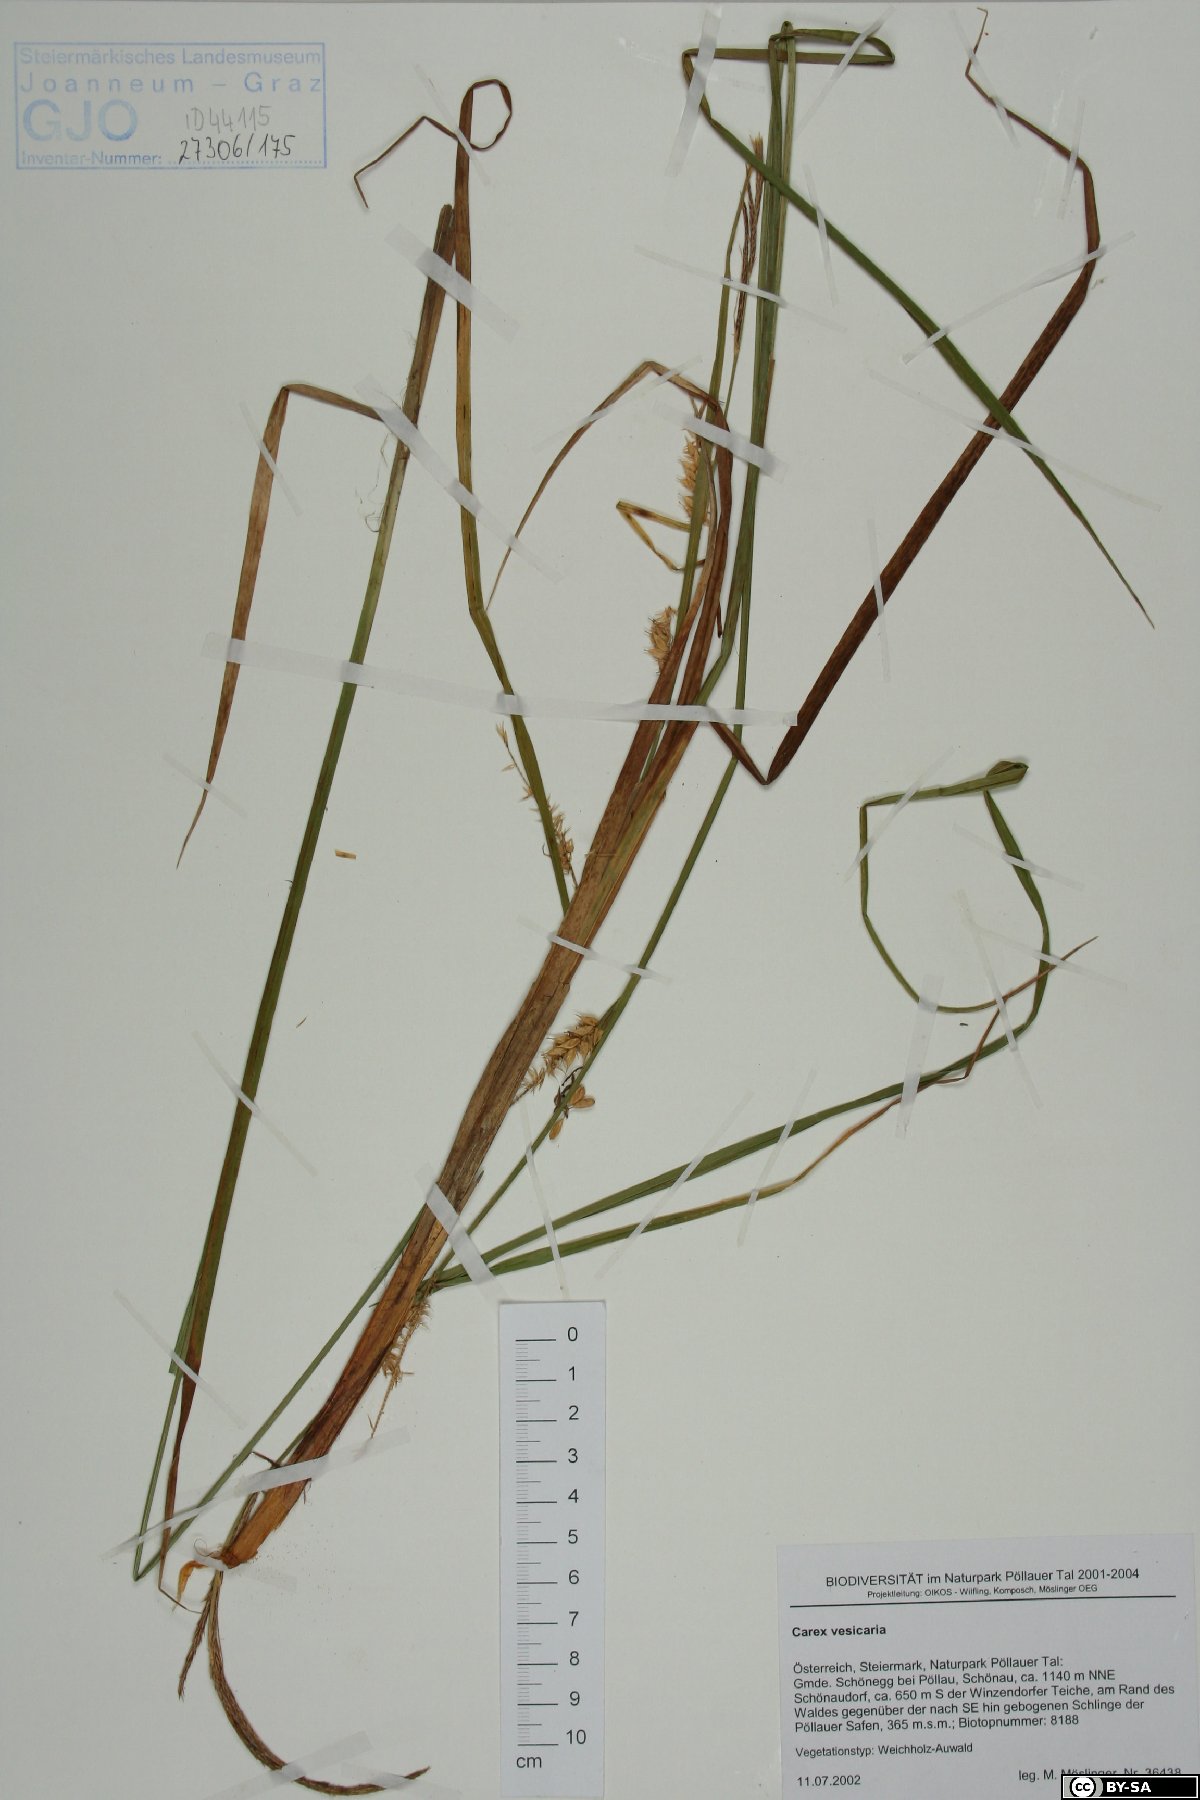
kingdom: Plantae
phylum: Tracheophyta
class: Liliopsida
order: Poales
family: Cyperaceae
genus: Carex
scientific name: Carex vesicaria
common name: Bladder-sedge
